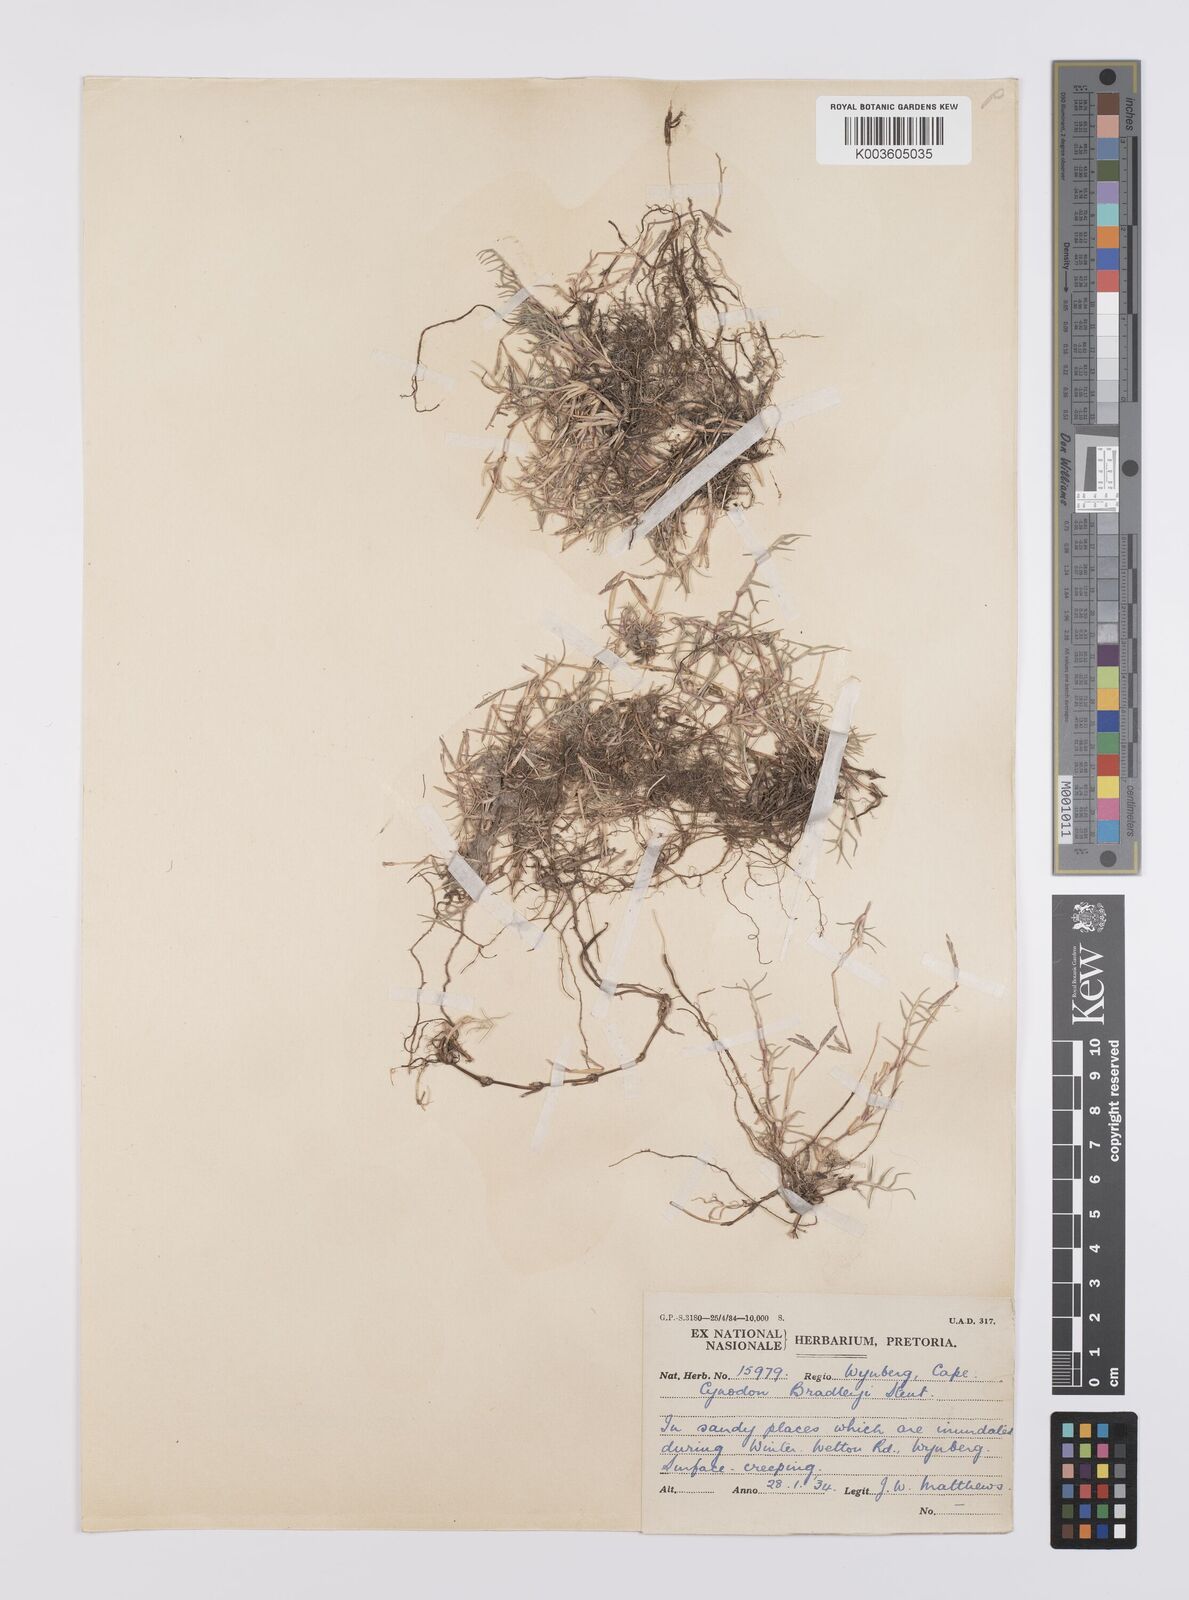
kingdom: Plantae
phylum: Tracheophyta
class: Liliopsida
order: Poales
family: Poaceae
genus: Cynodon
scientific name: Cynodon transvaalensis
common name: African bermuda grass
